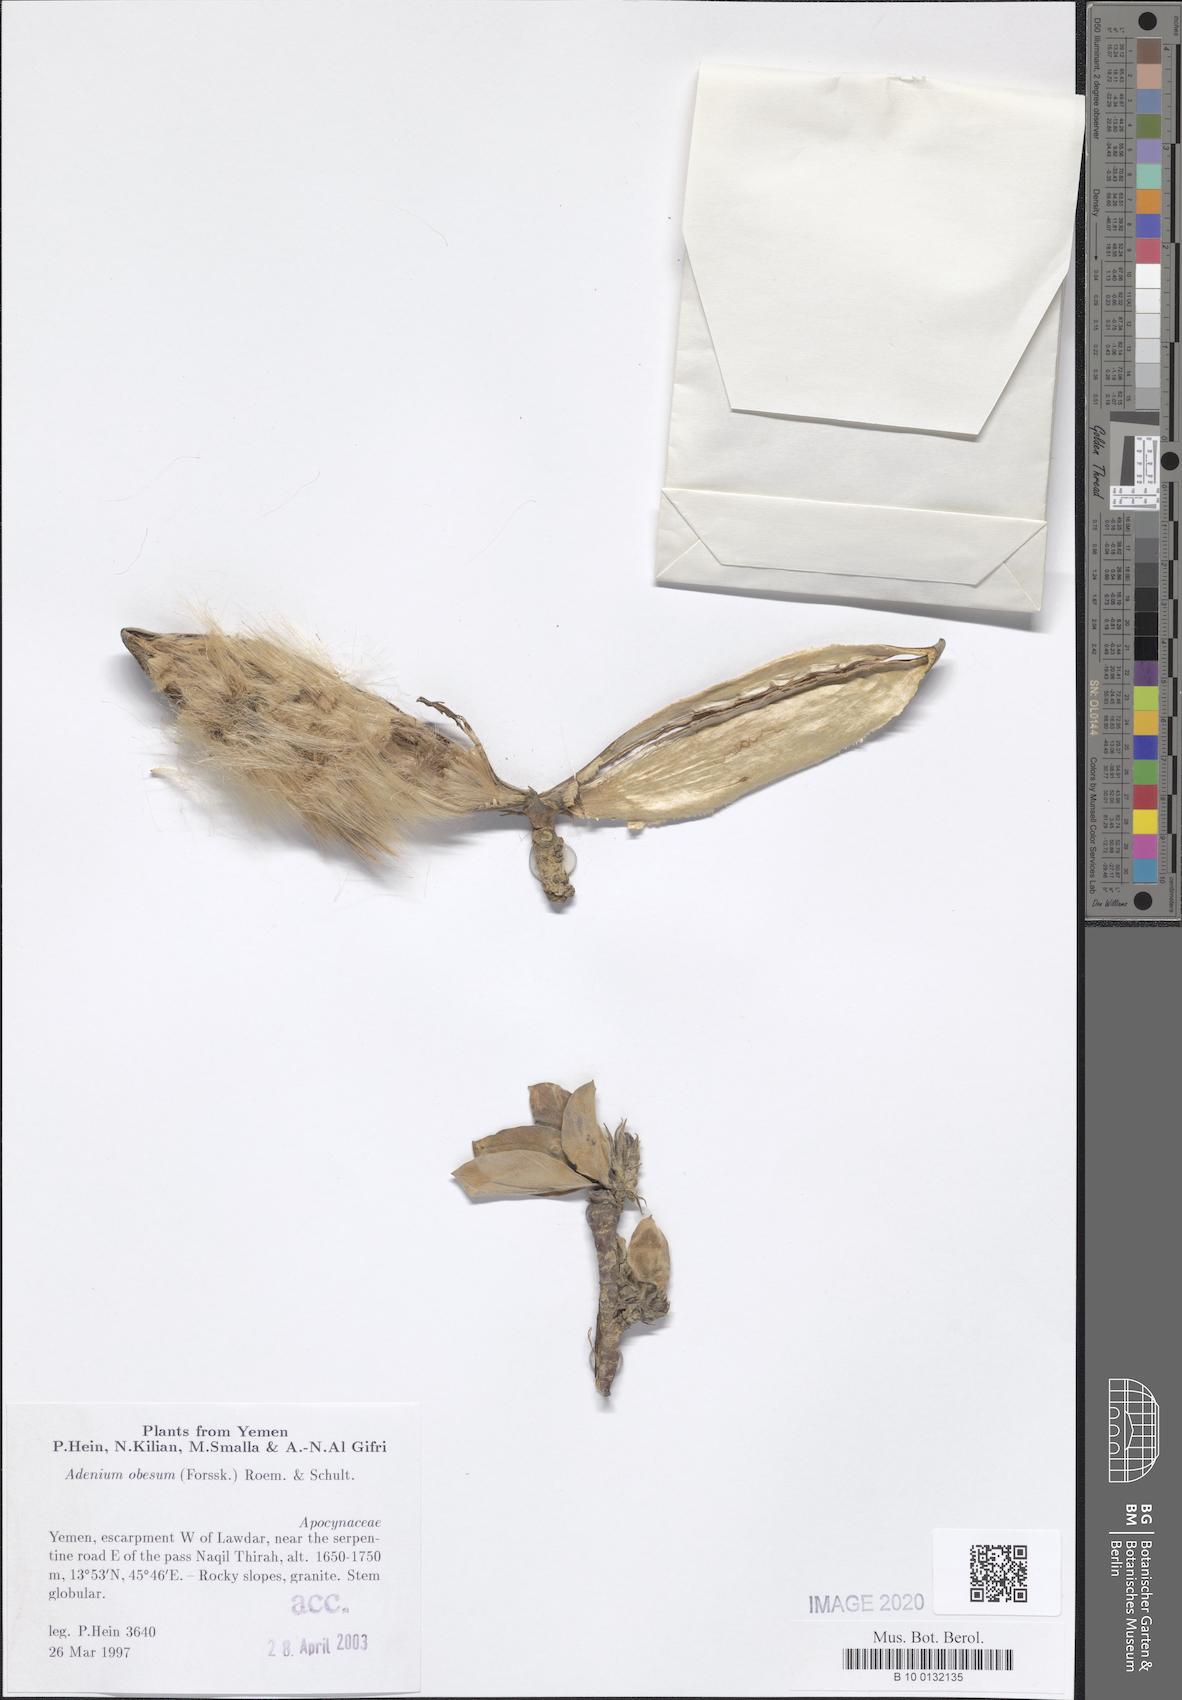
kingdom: Plantae
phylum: Tracheophyta
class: Magnoliopsida
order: Gentianales
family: Apocynaceae
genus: Adenium
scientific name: Adenium obesum
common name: Desert-rose
